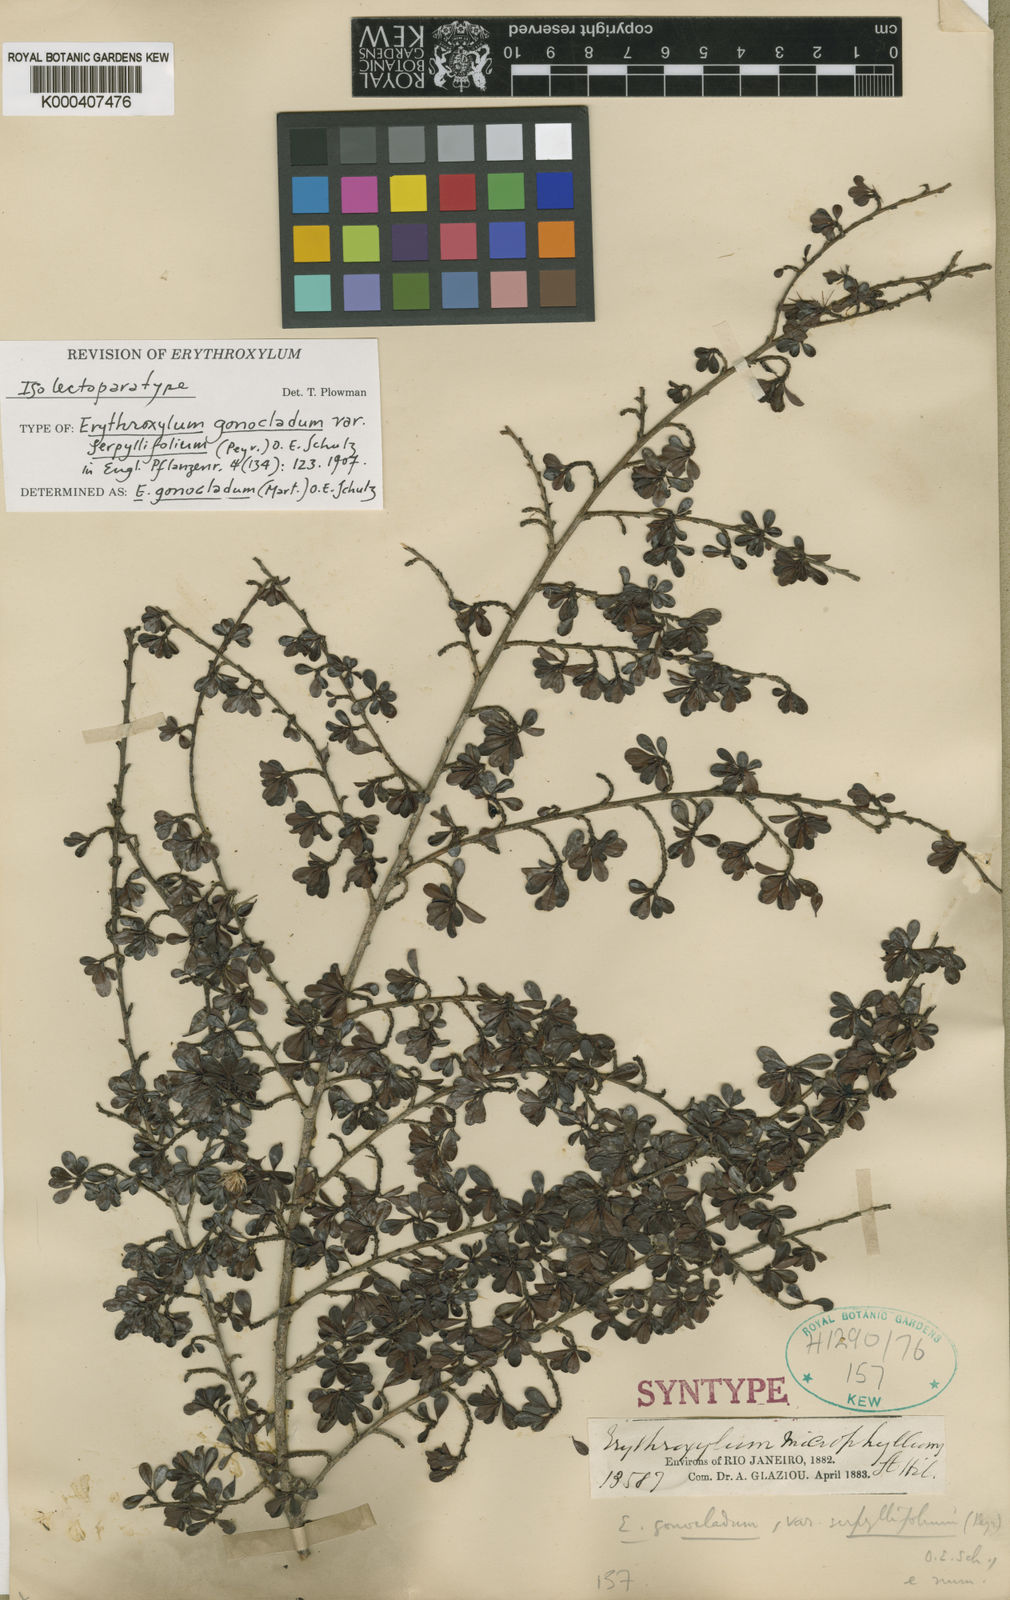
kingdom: Plantae
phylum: Tracheophyta
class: Magnoliopsida
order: Malpighiales
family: Erythroxylaceae
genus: Erythroxylum
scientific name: Erythroxylum
